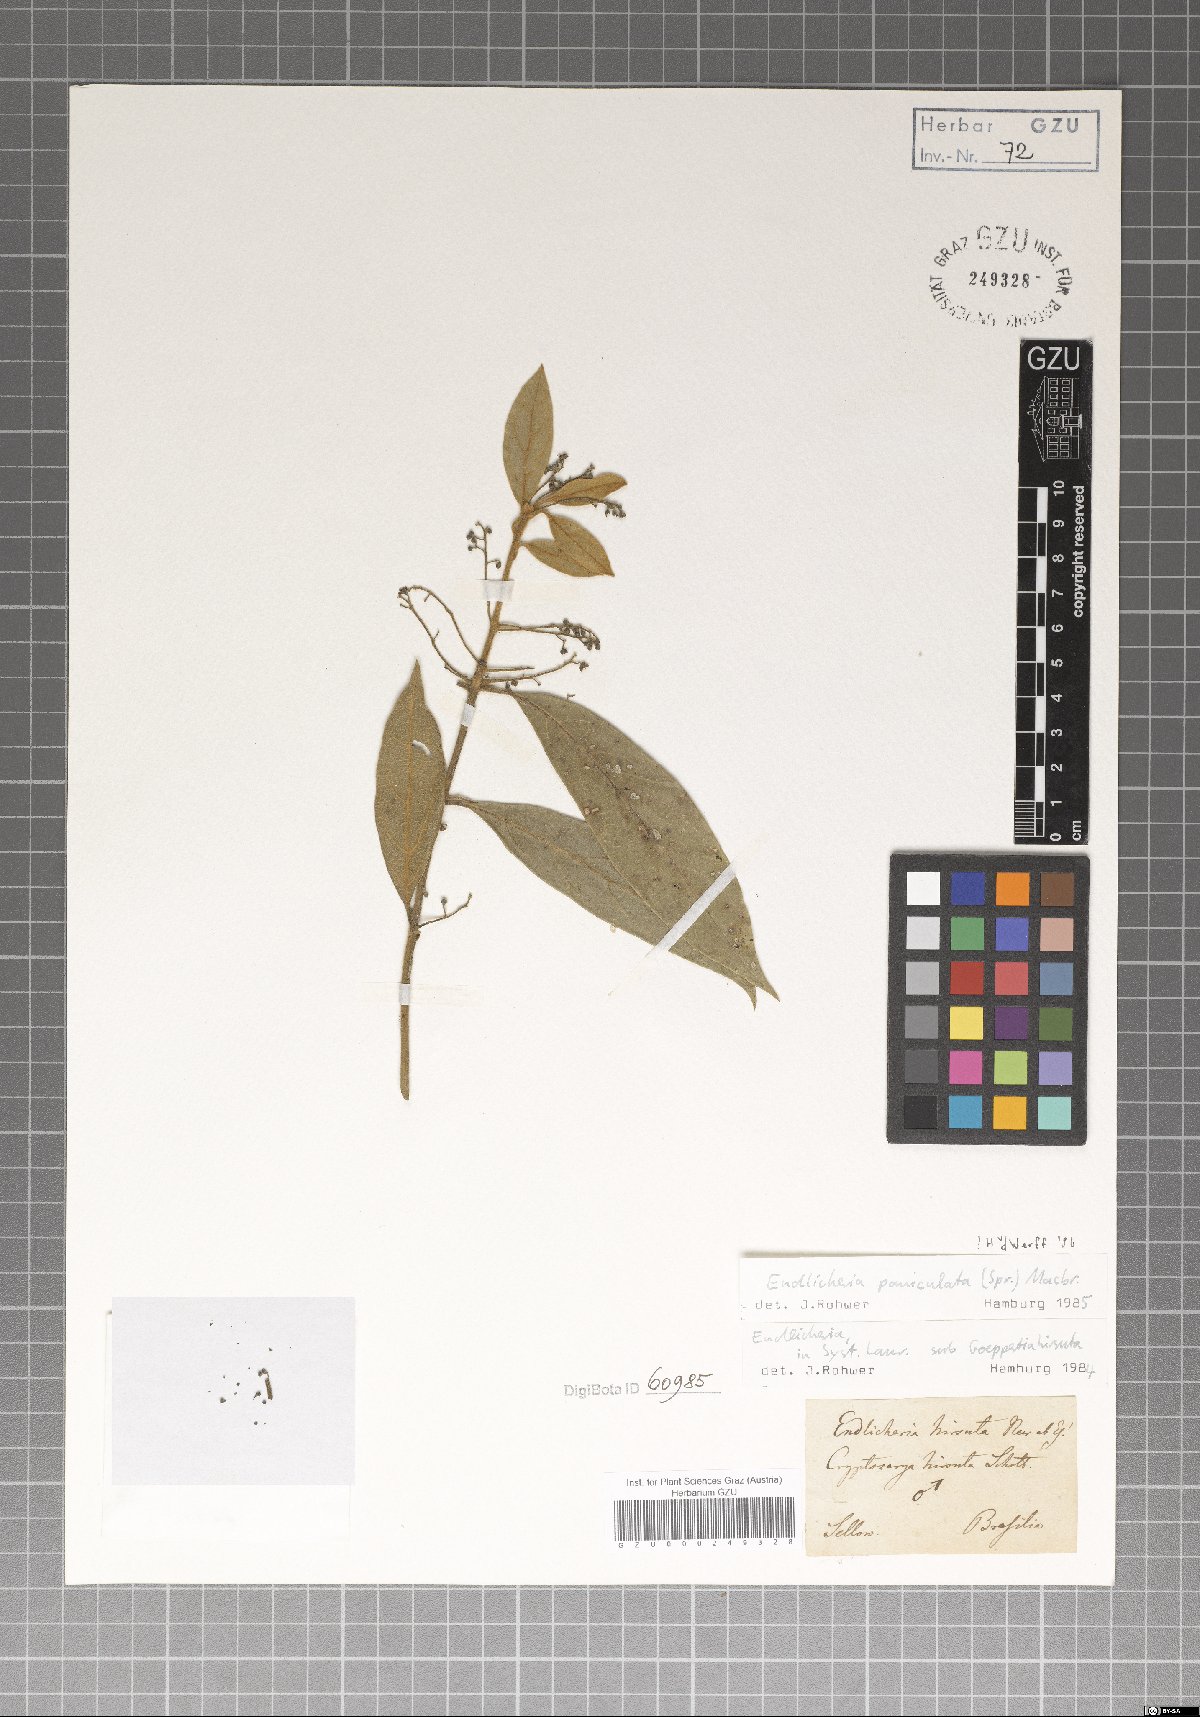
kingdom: Plantae
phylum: Tracheophyta
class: Magnoliopsida
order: Laurales
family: Lauraceae
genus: Endlicheria
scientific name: Endlicheria paniculata
